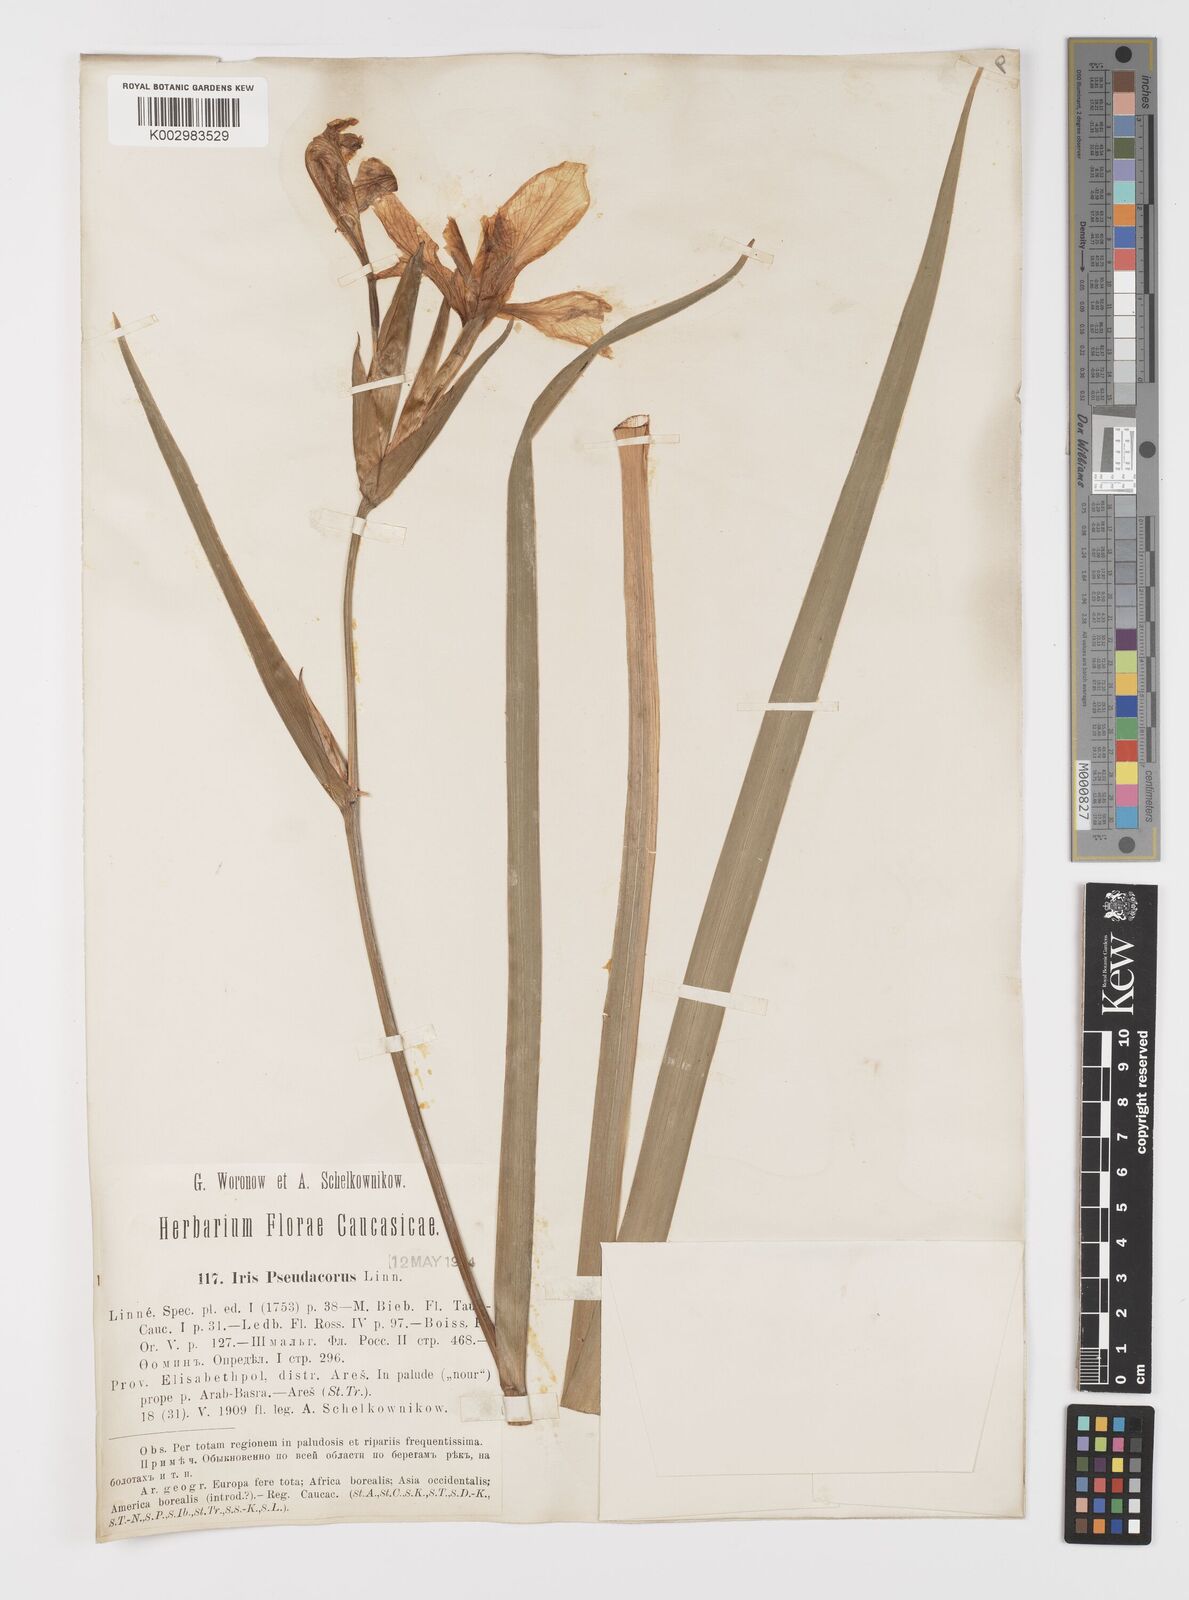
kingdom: Plantae
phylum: Tracheophyta
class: Liliopsida
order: Asparagales
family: Iridaceae
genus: Iris
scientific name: Iris
